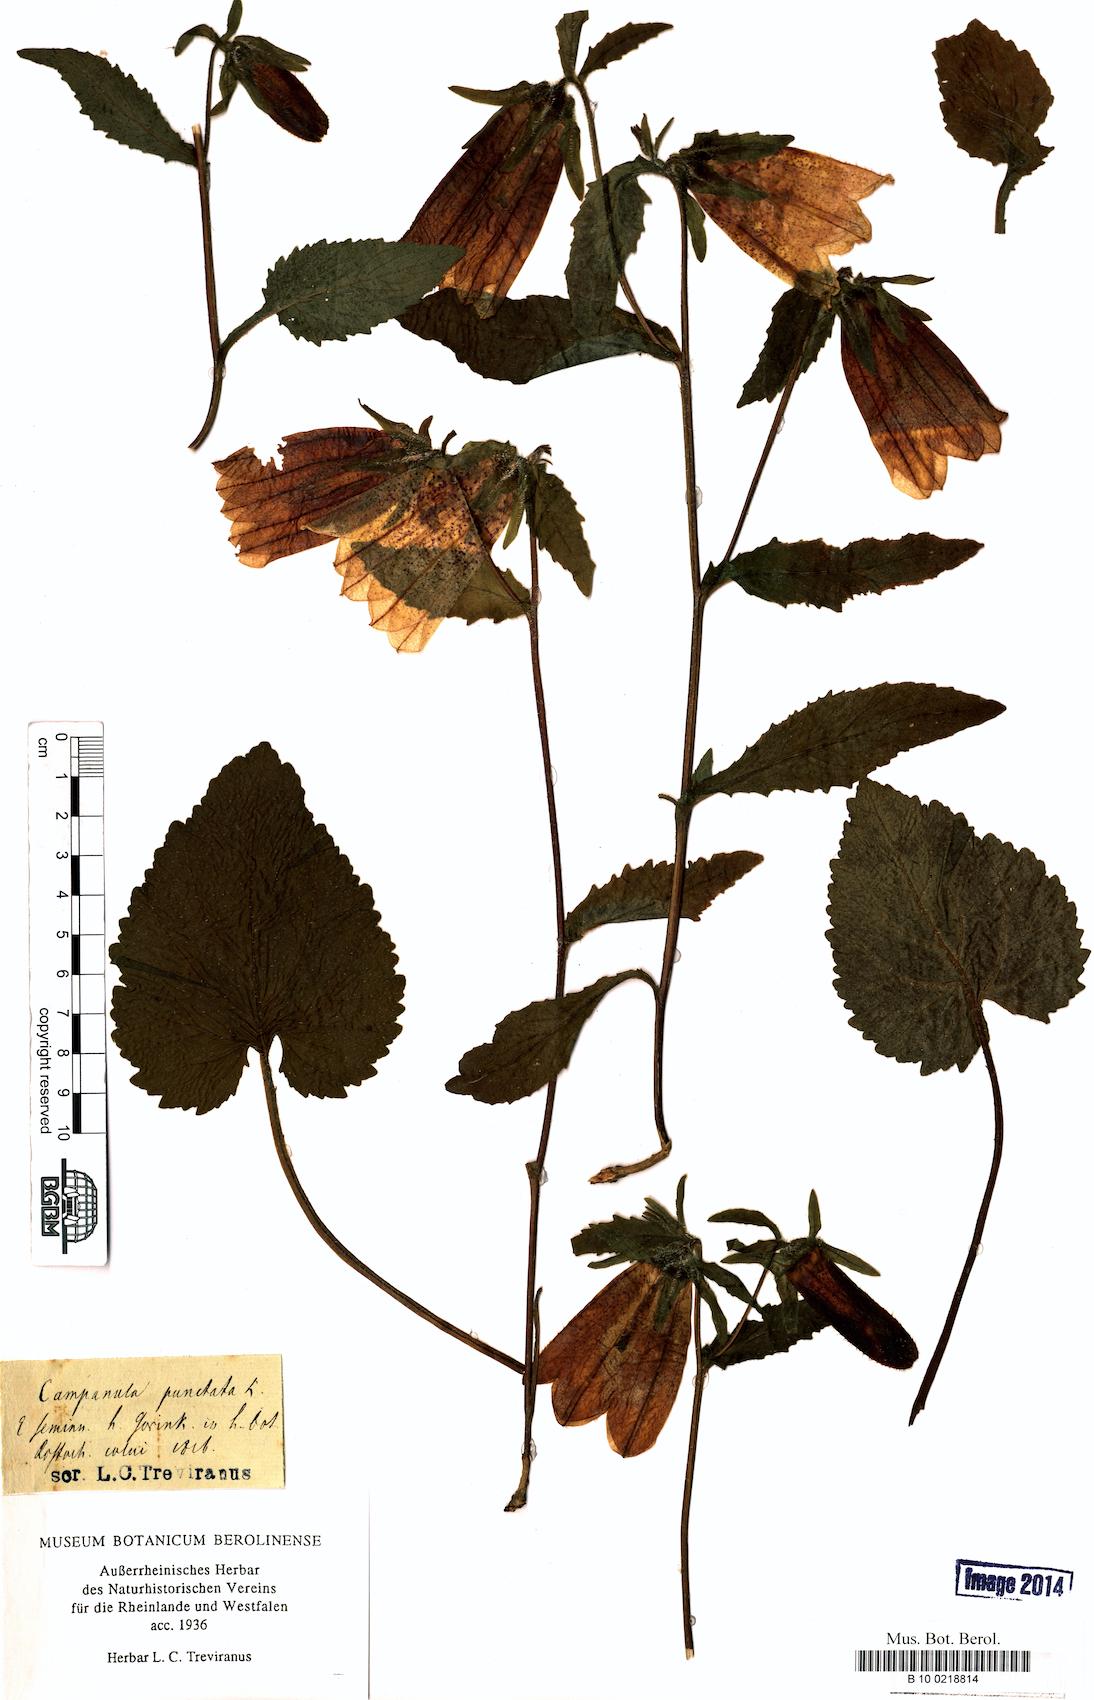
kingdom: Plantae
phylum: Tracheophyta
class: Magnoliopsida
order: Asterales
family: Campanulaceae
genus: Campanula
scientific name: Campanula punctata
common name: Spotted bellflower
